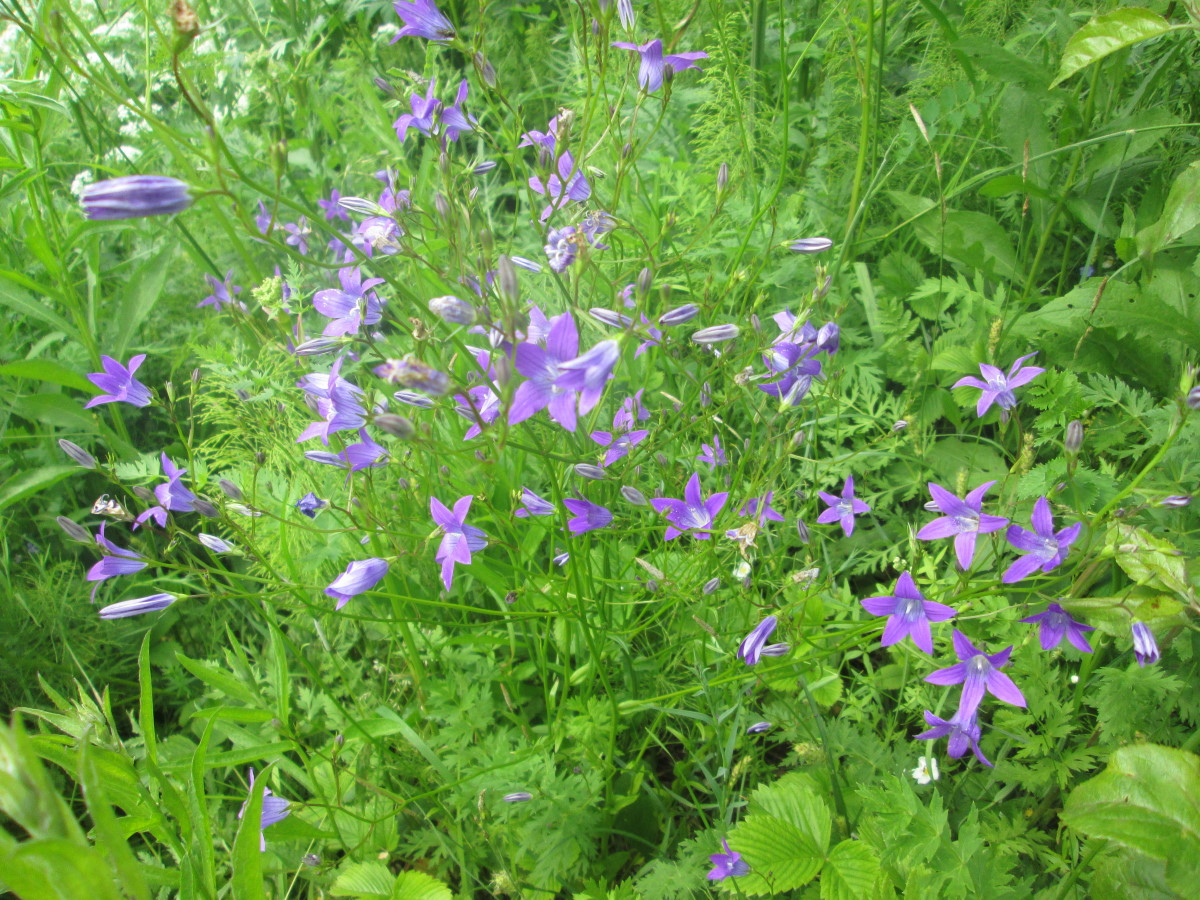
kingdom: Plantae
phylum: Tracheophyta
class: Magnoliopsida
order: Asterales
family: Campanulaceae
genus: Campanula
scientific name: Campanula patula
